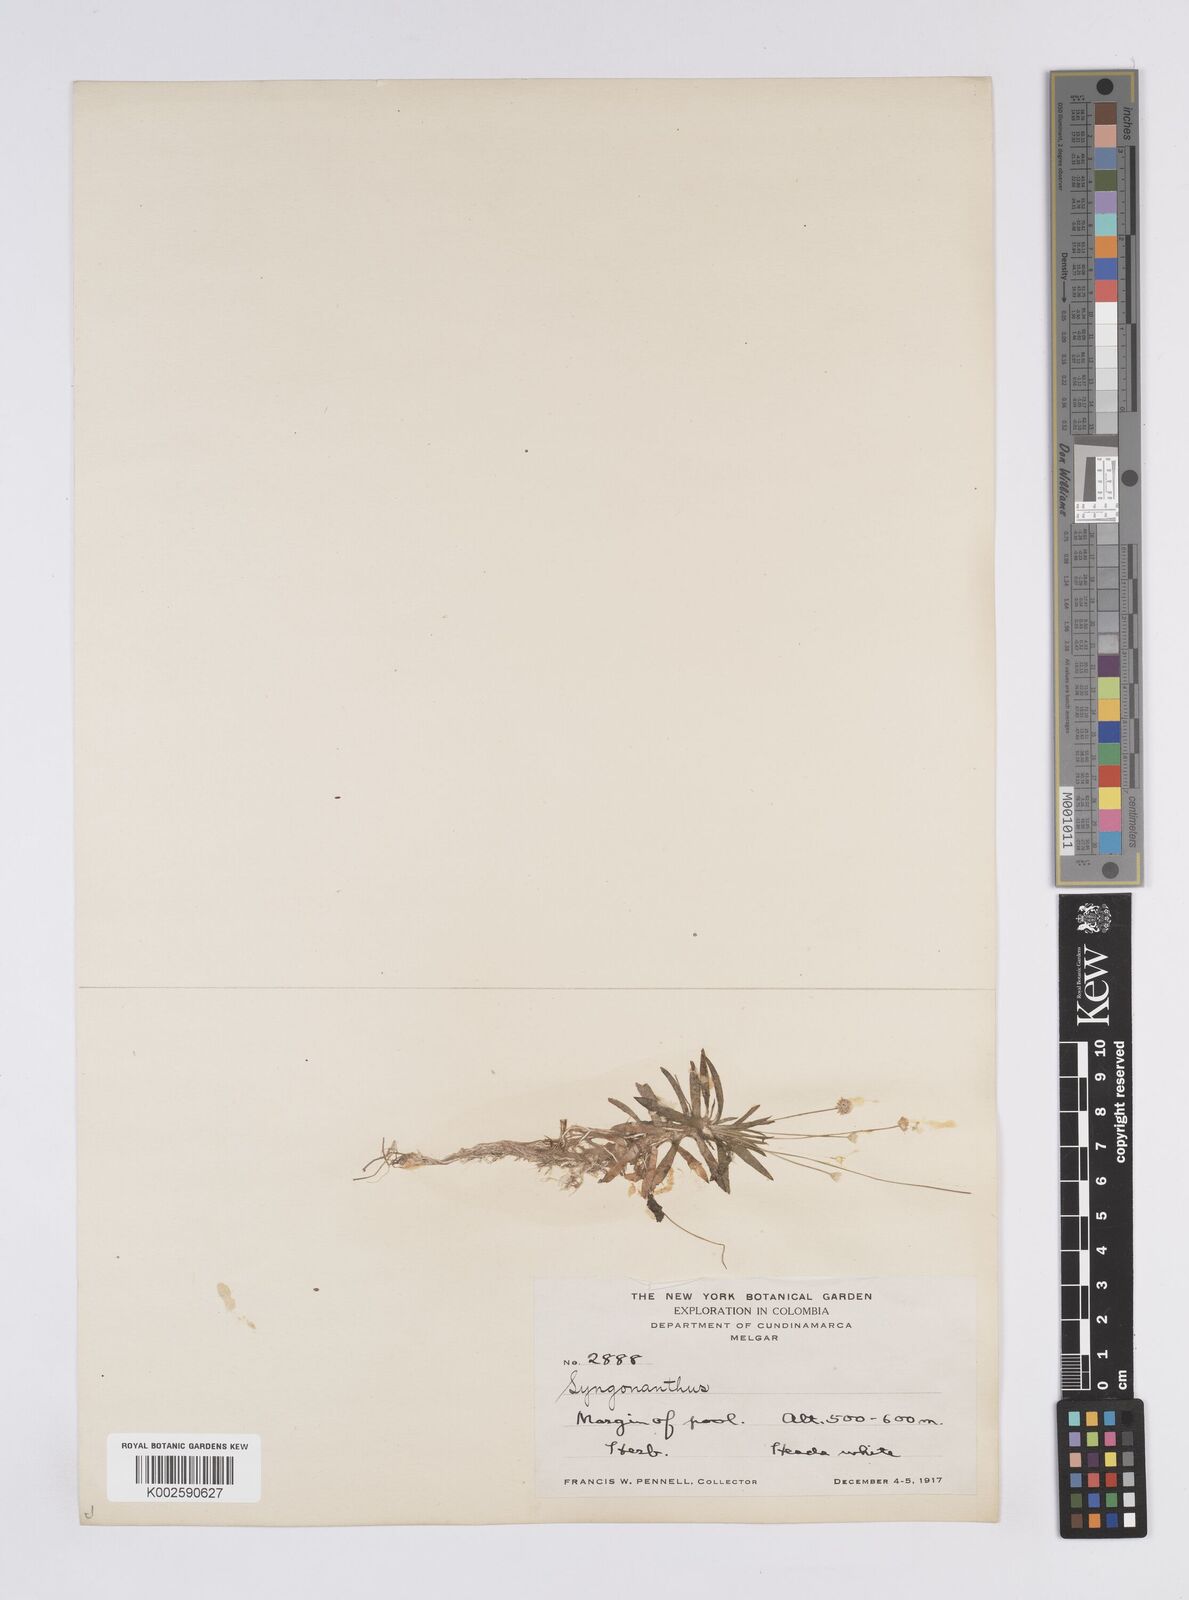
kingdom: Plantae
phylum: Tracheophyta
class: Liliopsida
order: Poales
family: Eriocaulaceae
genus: Syngonanthus
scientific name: Syngonanthus caulescens
